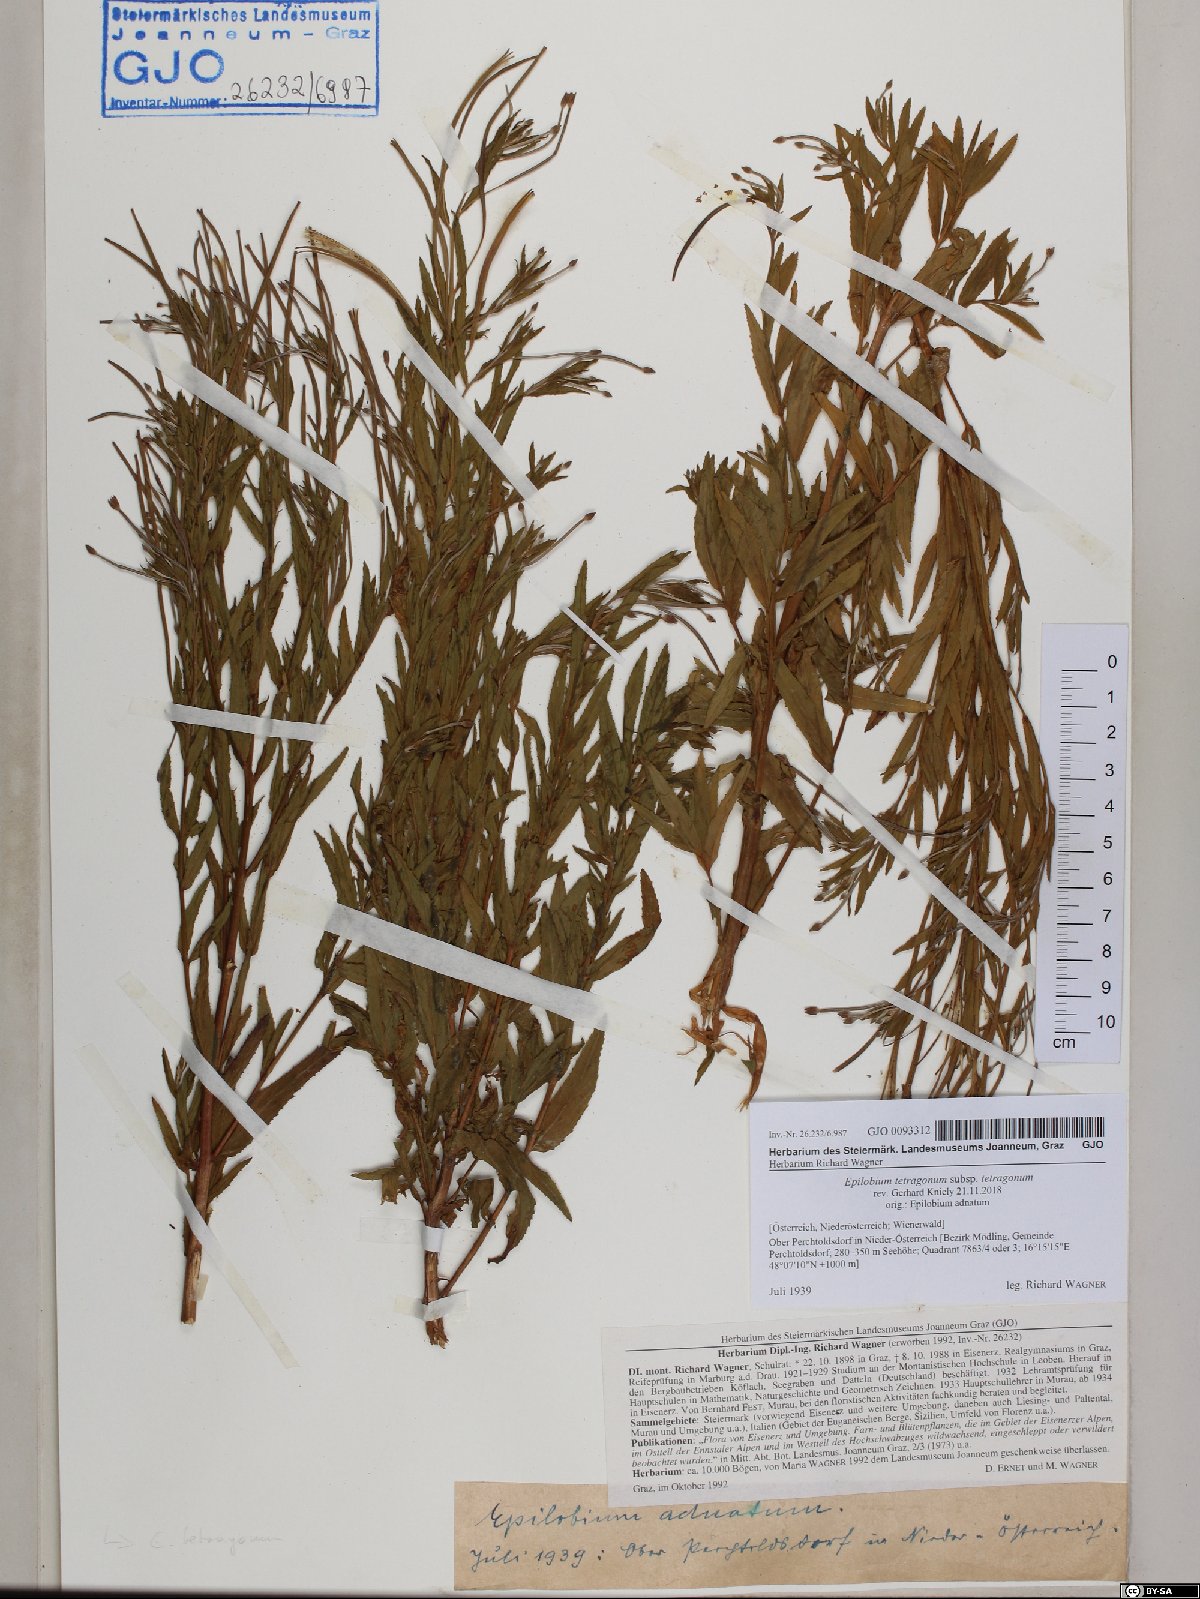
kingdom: Plantae
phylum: Tracheophyta
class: Magnoliopsida
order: Myrtales
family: Onagraceae
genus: Epilobium
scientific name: Epilobium tetragonum
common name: Square-stemmed willowherb
